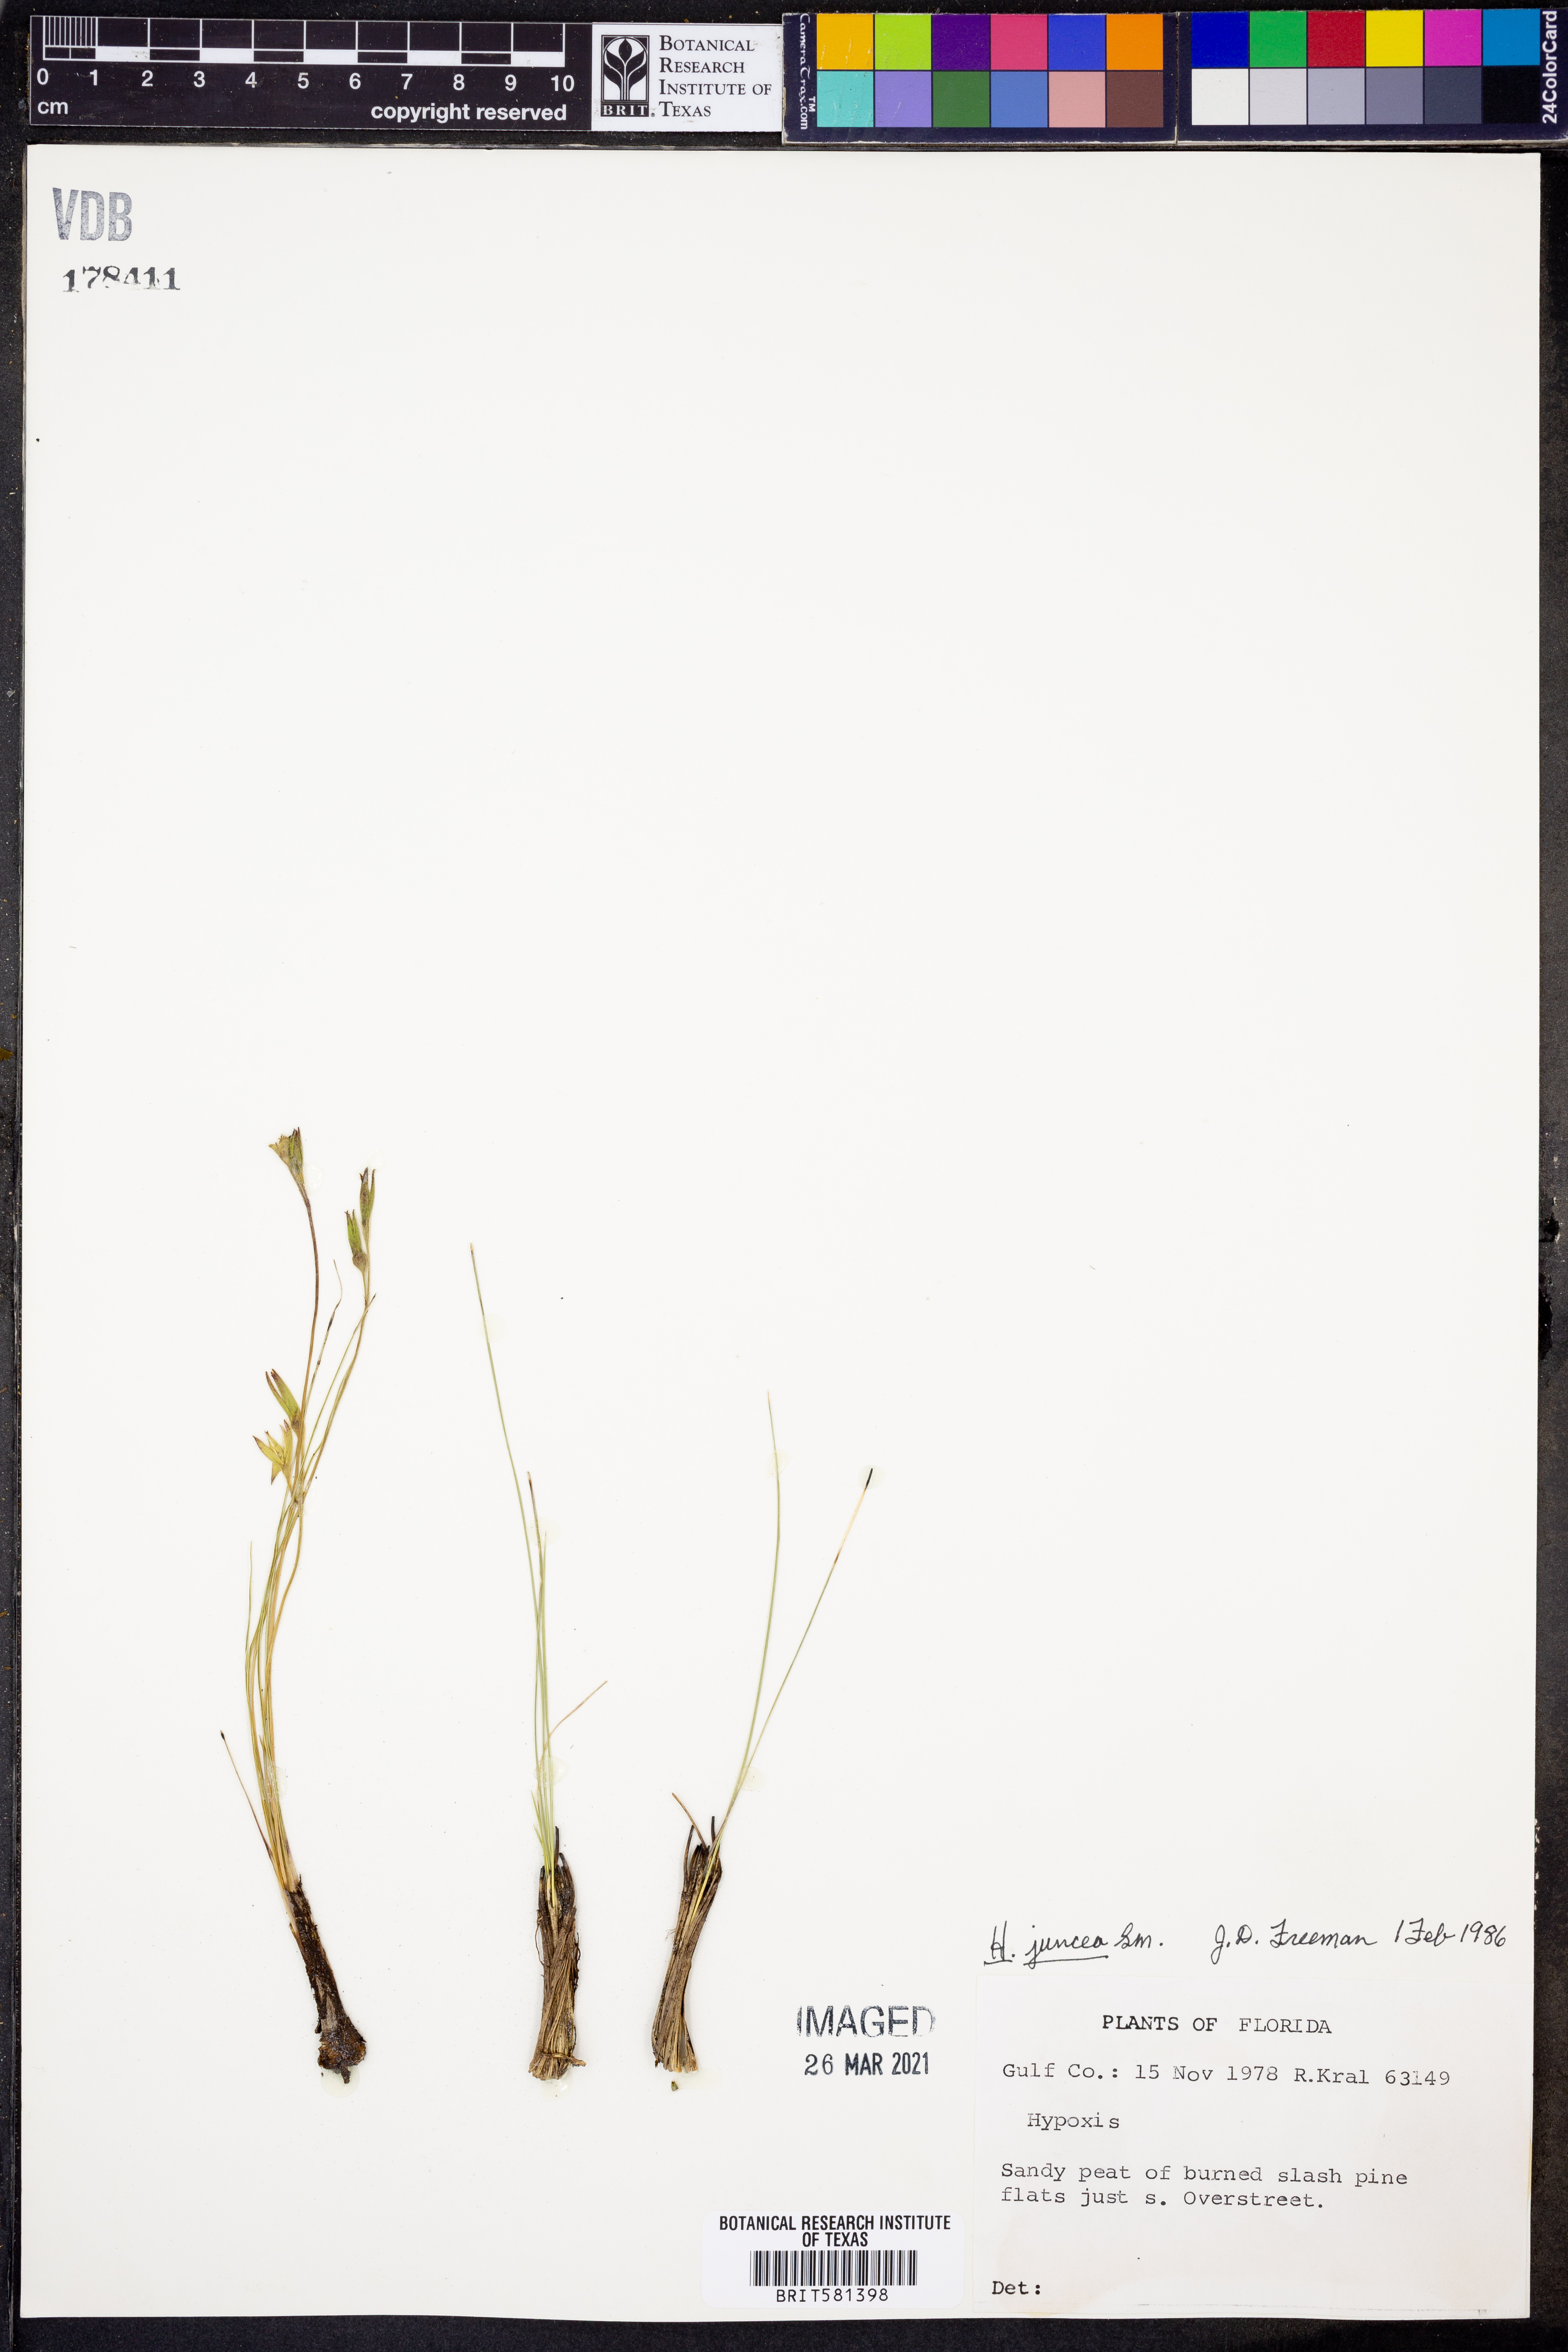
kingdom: Plantae
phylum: Tracheophyta
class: Liliopsida
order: Asparagales
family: Hypoxidaceae
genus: Hypoxis
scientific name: Hypoxis juncea
